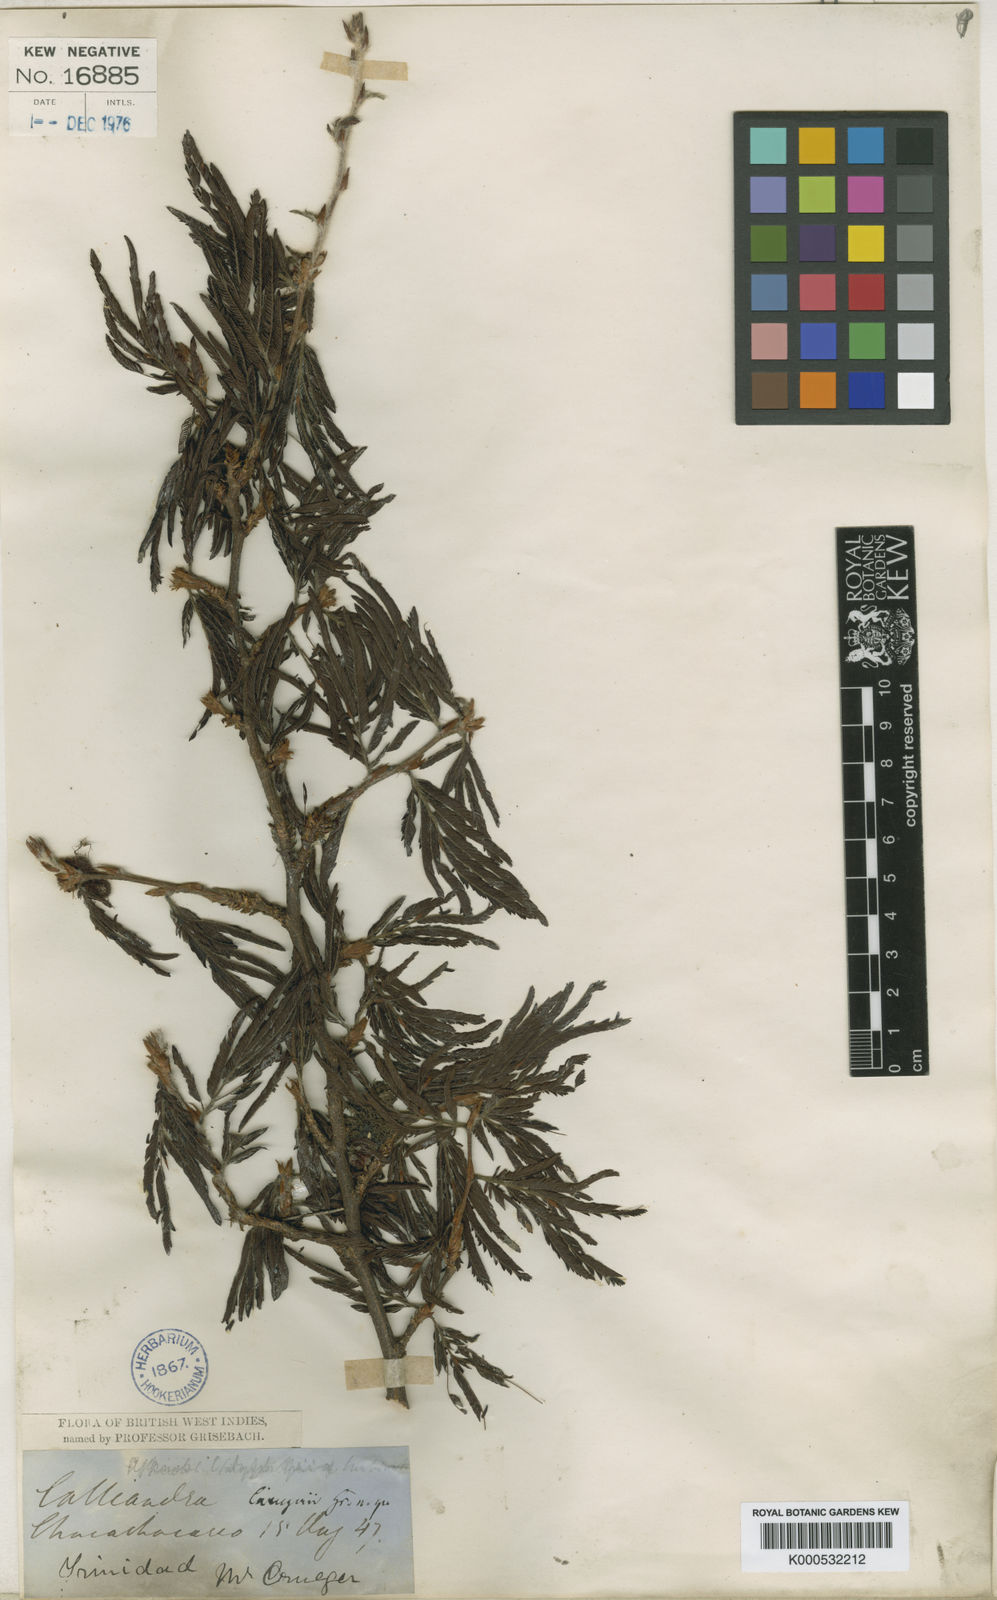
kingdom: Plantae
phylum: Tracheophyta
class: Magnoliopsida
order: Fabales
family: Fabaceae
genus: Calliandra
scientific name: Calliandra cruegeri
